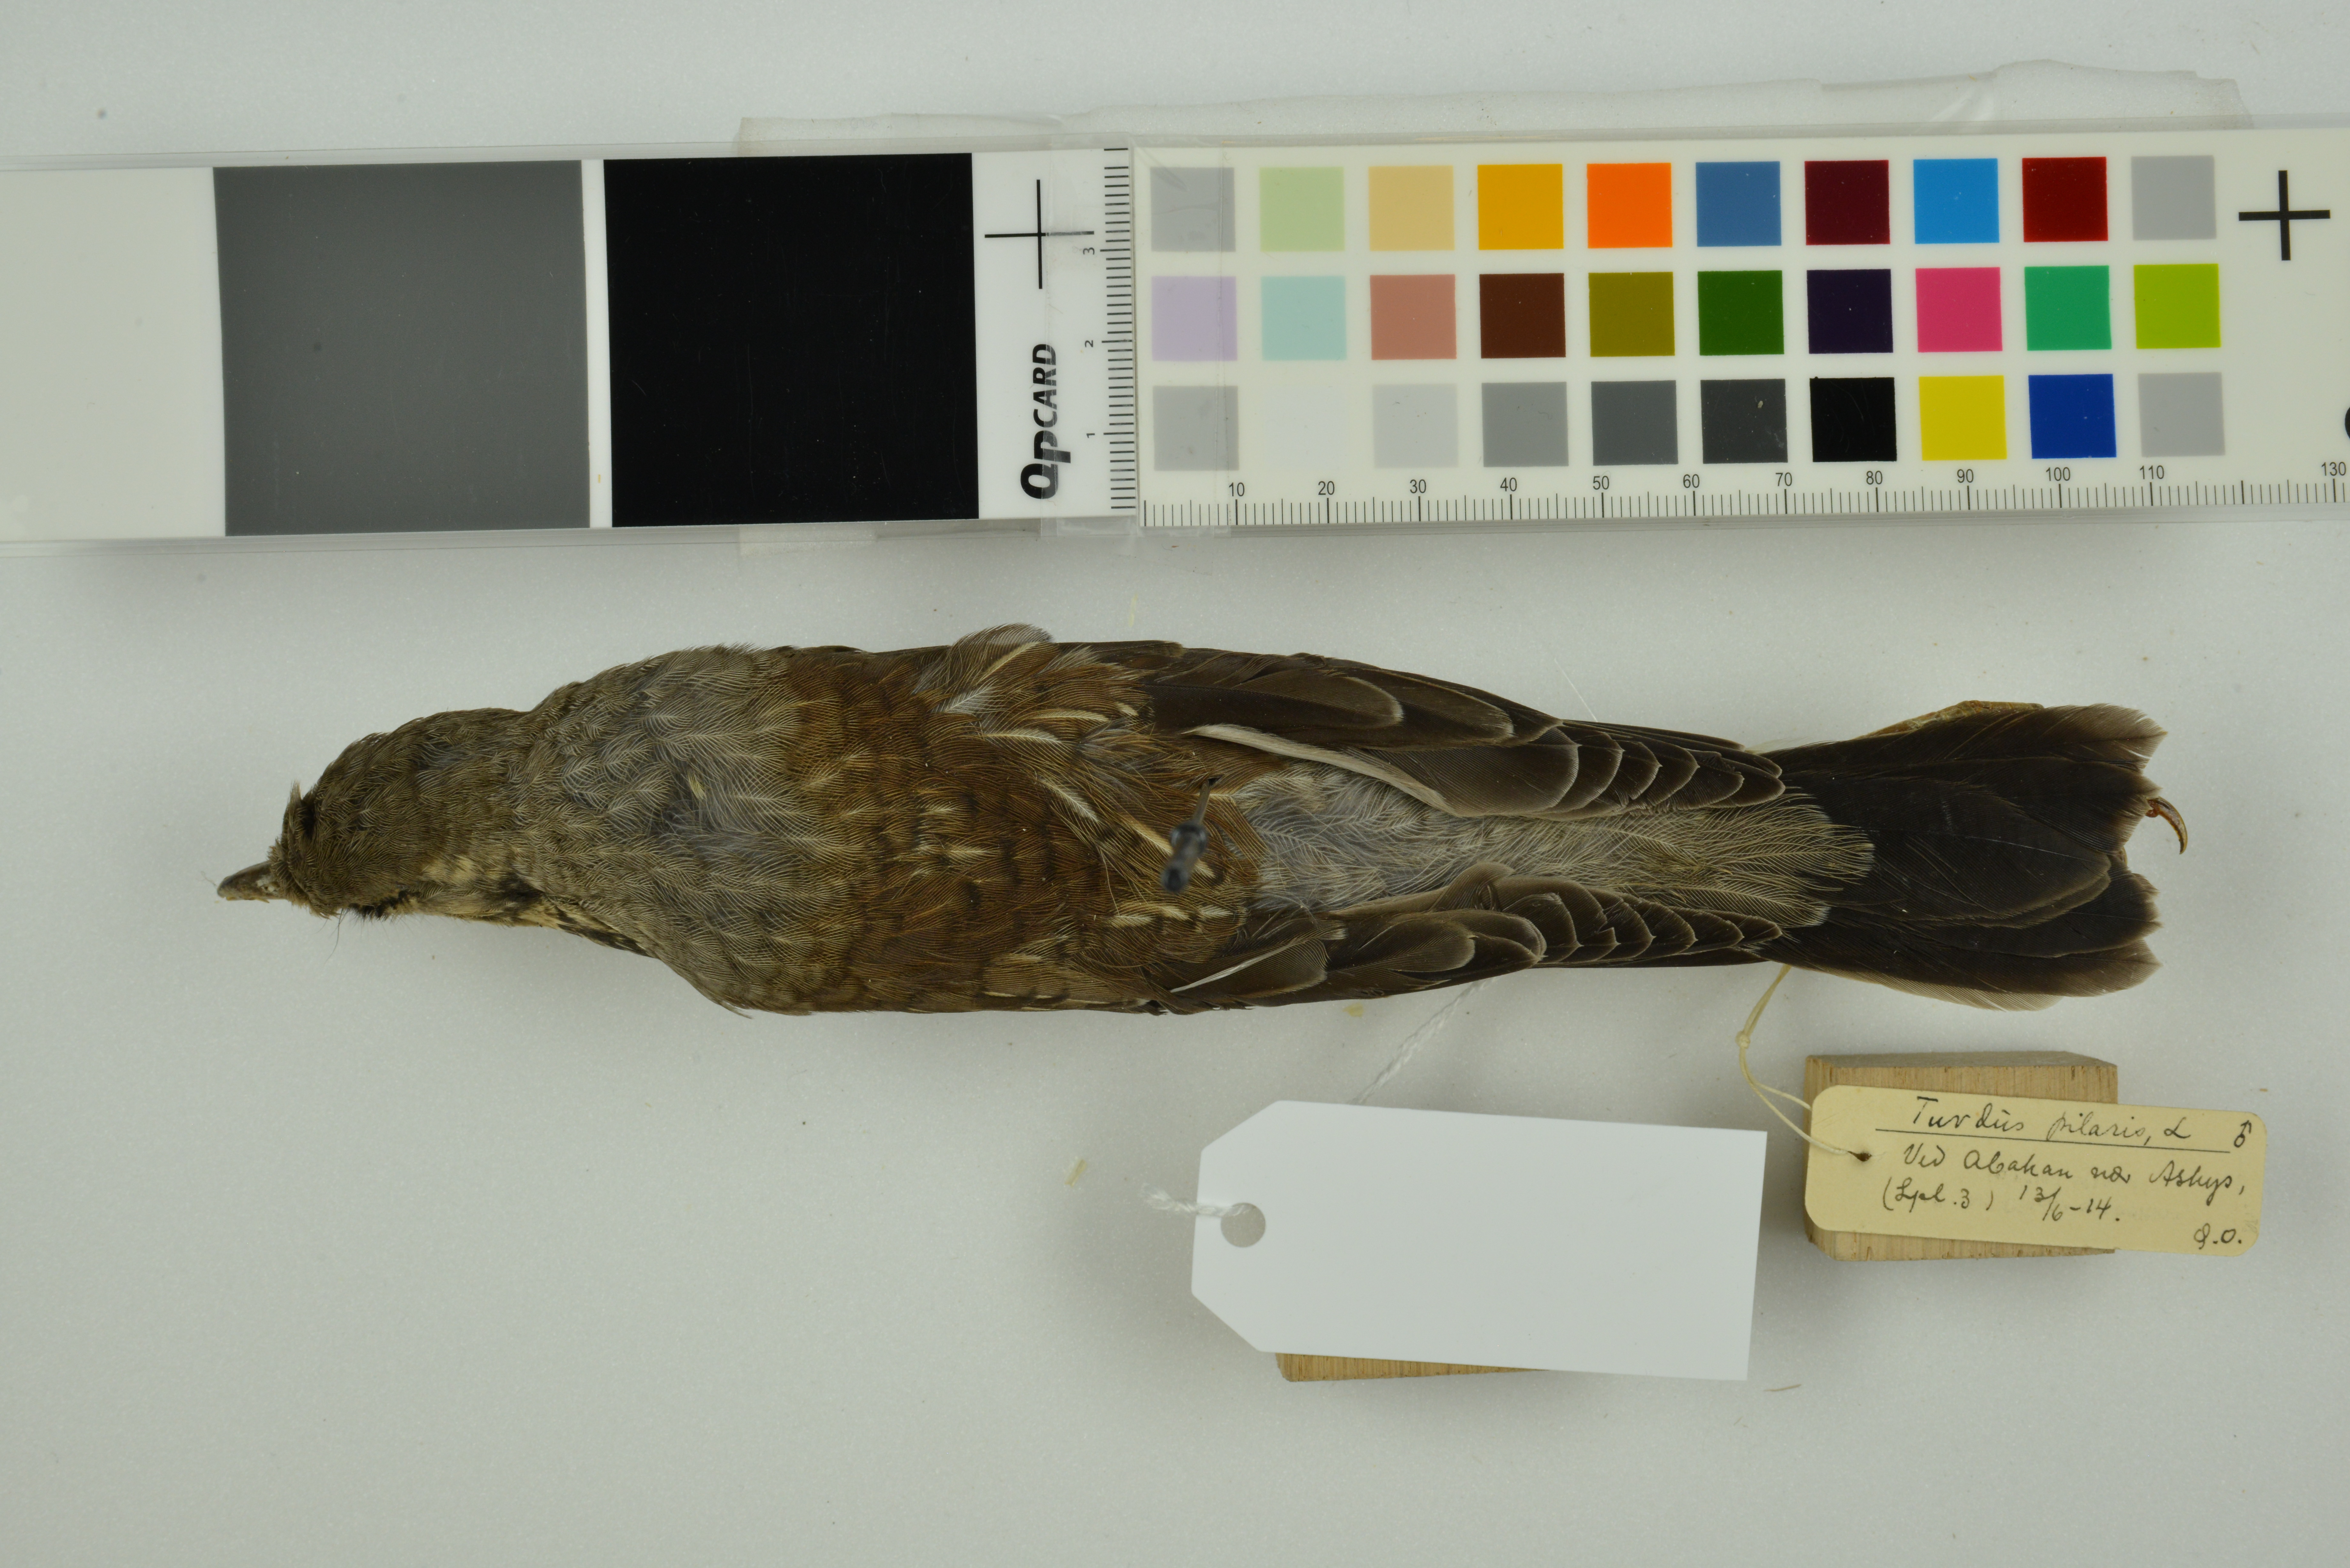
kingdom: Animalia
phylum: Chordata
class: Aves
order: Passeriformes
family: Turdidae
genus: Turdus
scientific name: Turdus pilaris
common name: Fieldfare
